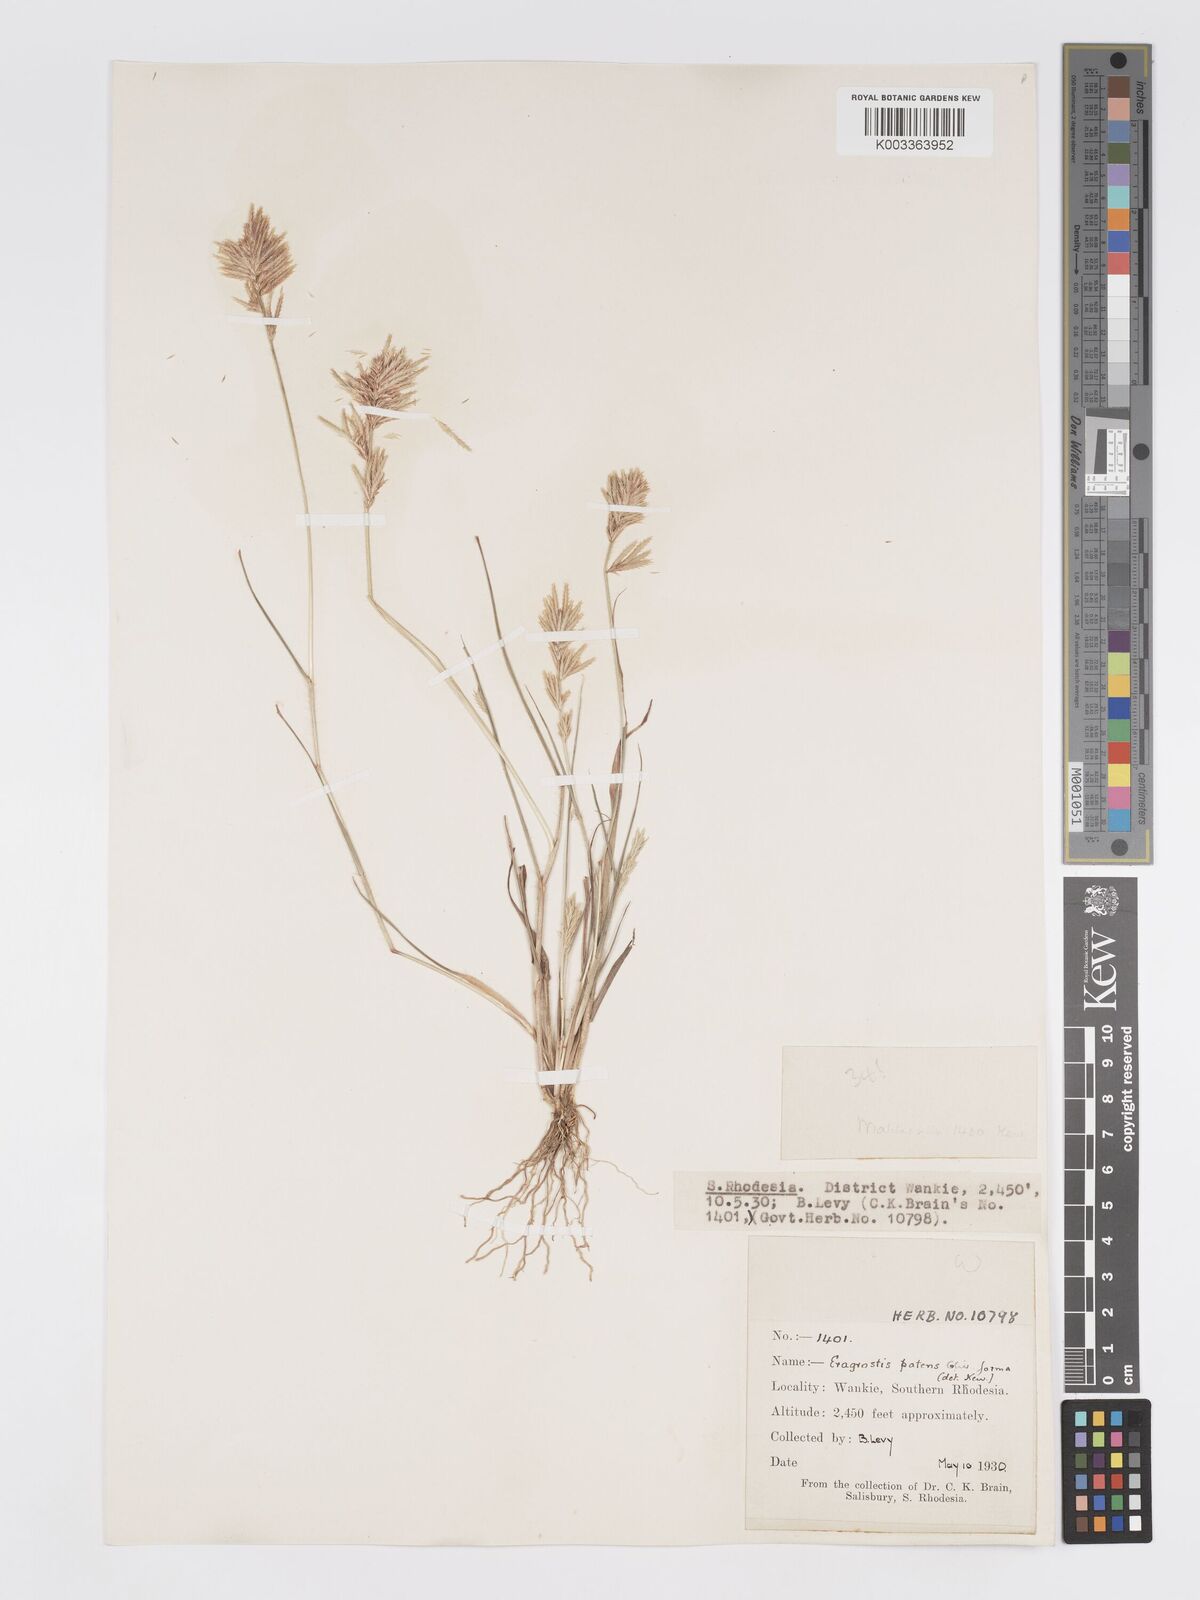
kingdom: Plantae
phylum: Tracheophyta
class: Liliopsida
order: Poales
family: Poaceae
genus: Eragrostis
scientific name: Eragrostis patens
